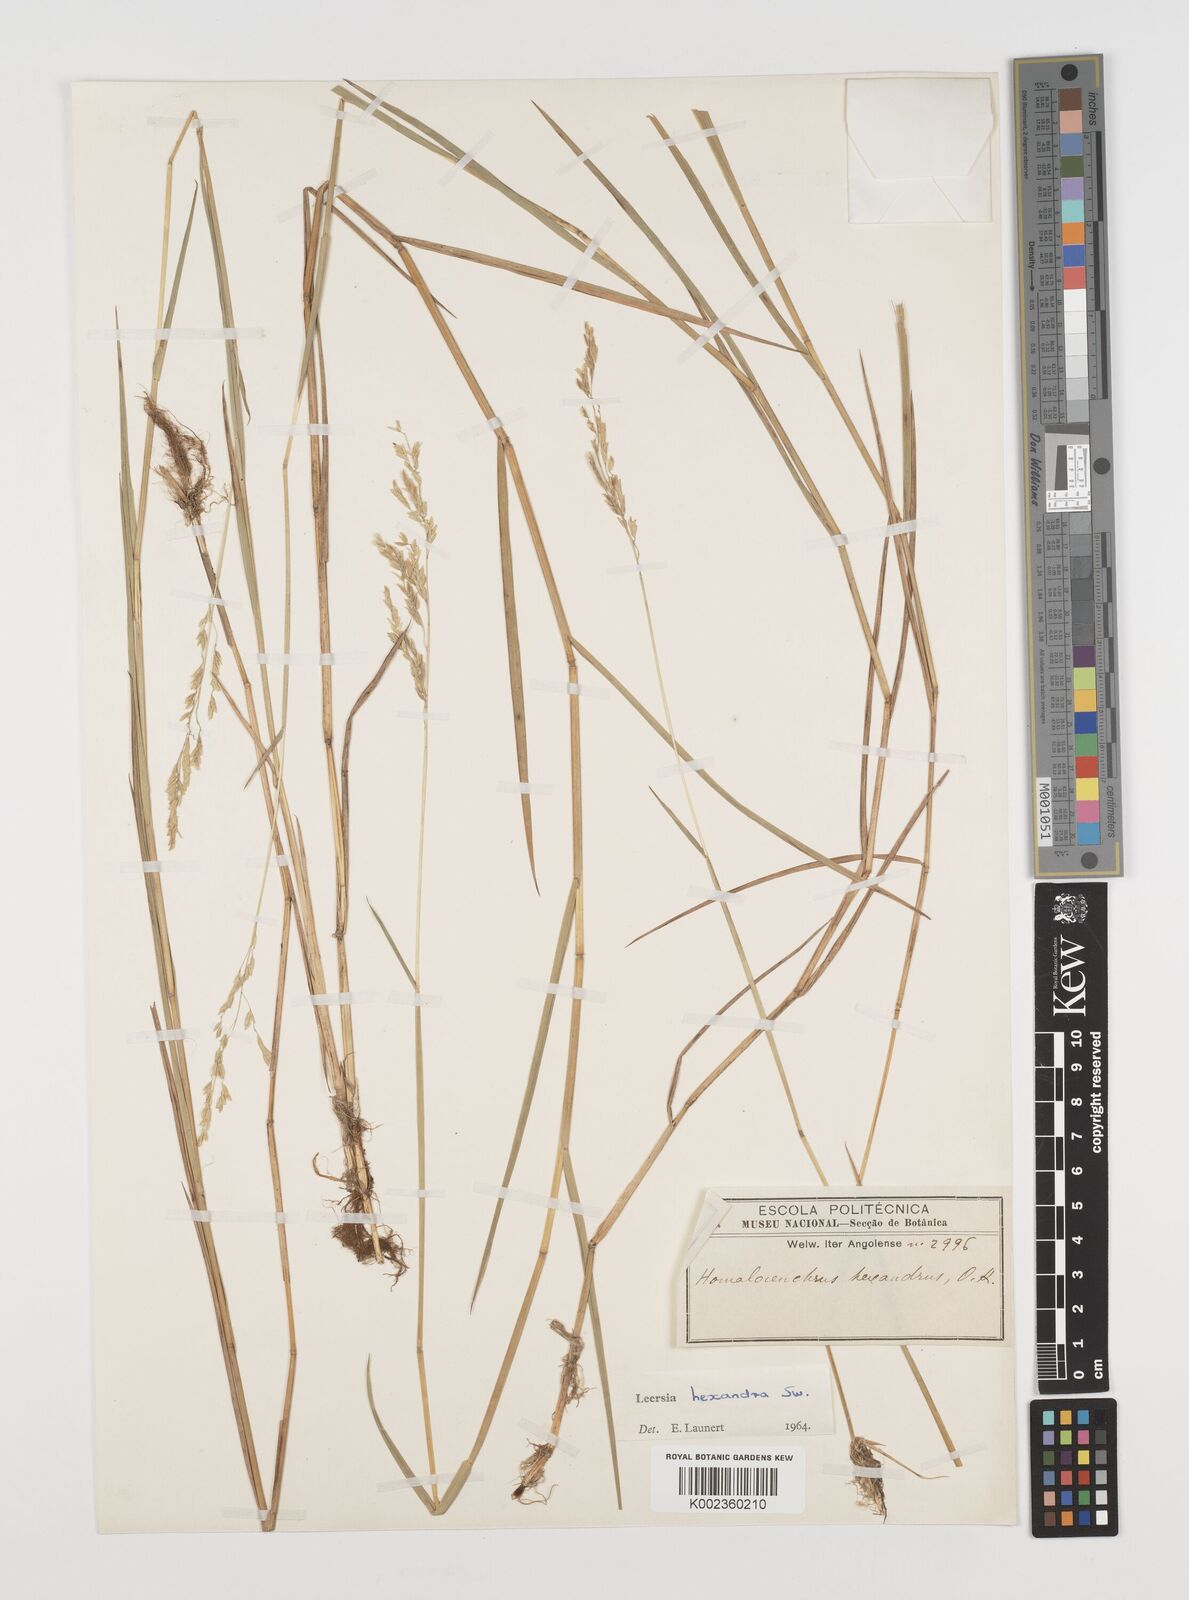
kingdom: Plantae
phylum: Tracheophyta
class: Liliopsida
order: Poales
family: Poaceae
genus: Leersia
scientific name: Leersia hexandra
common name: Southern cut grass
